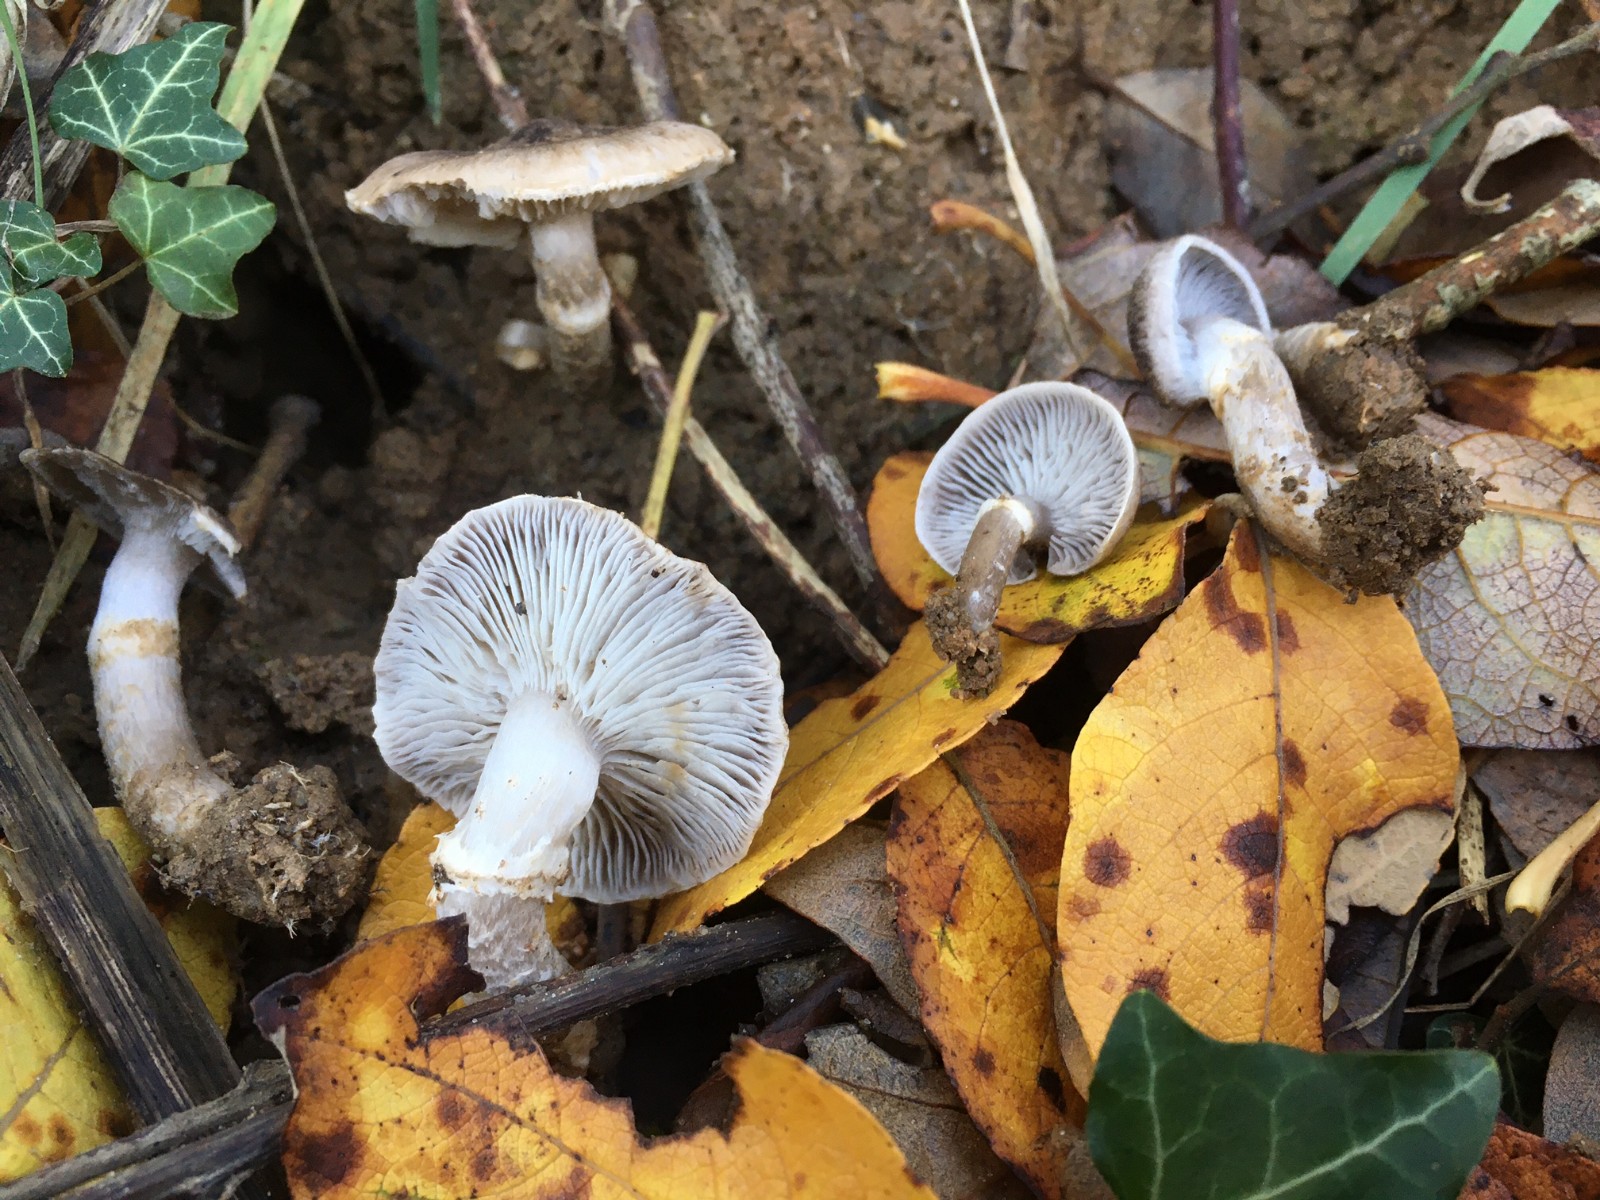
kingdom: Fungi
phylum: Basidiomycota
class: Agaricomycetes
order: Agaricales
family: Tricholomataceae
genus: Tricholoma
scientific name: Tricholoma cingulatum
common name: ring-ridderhat
